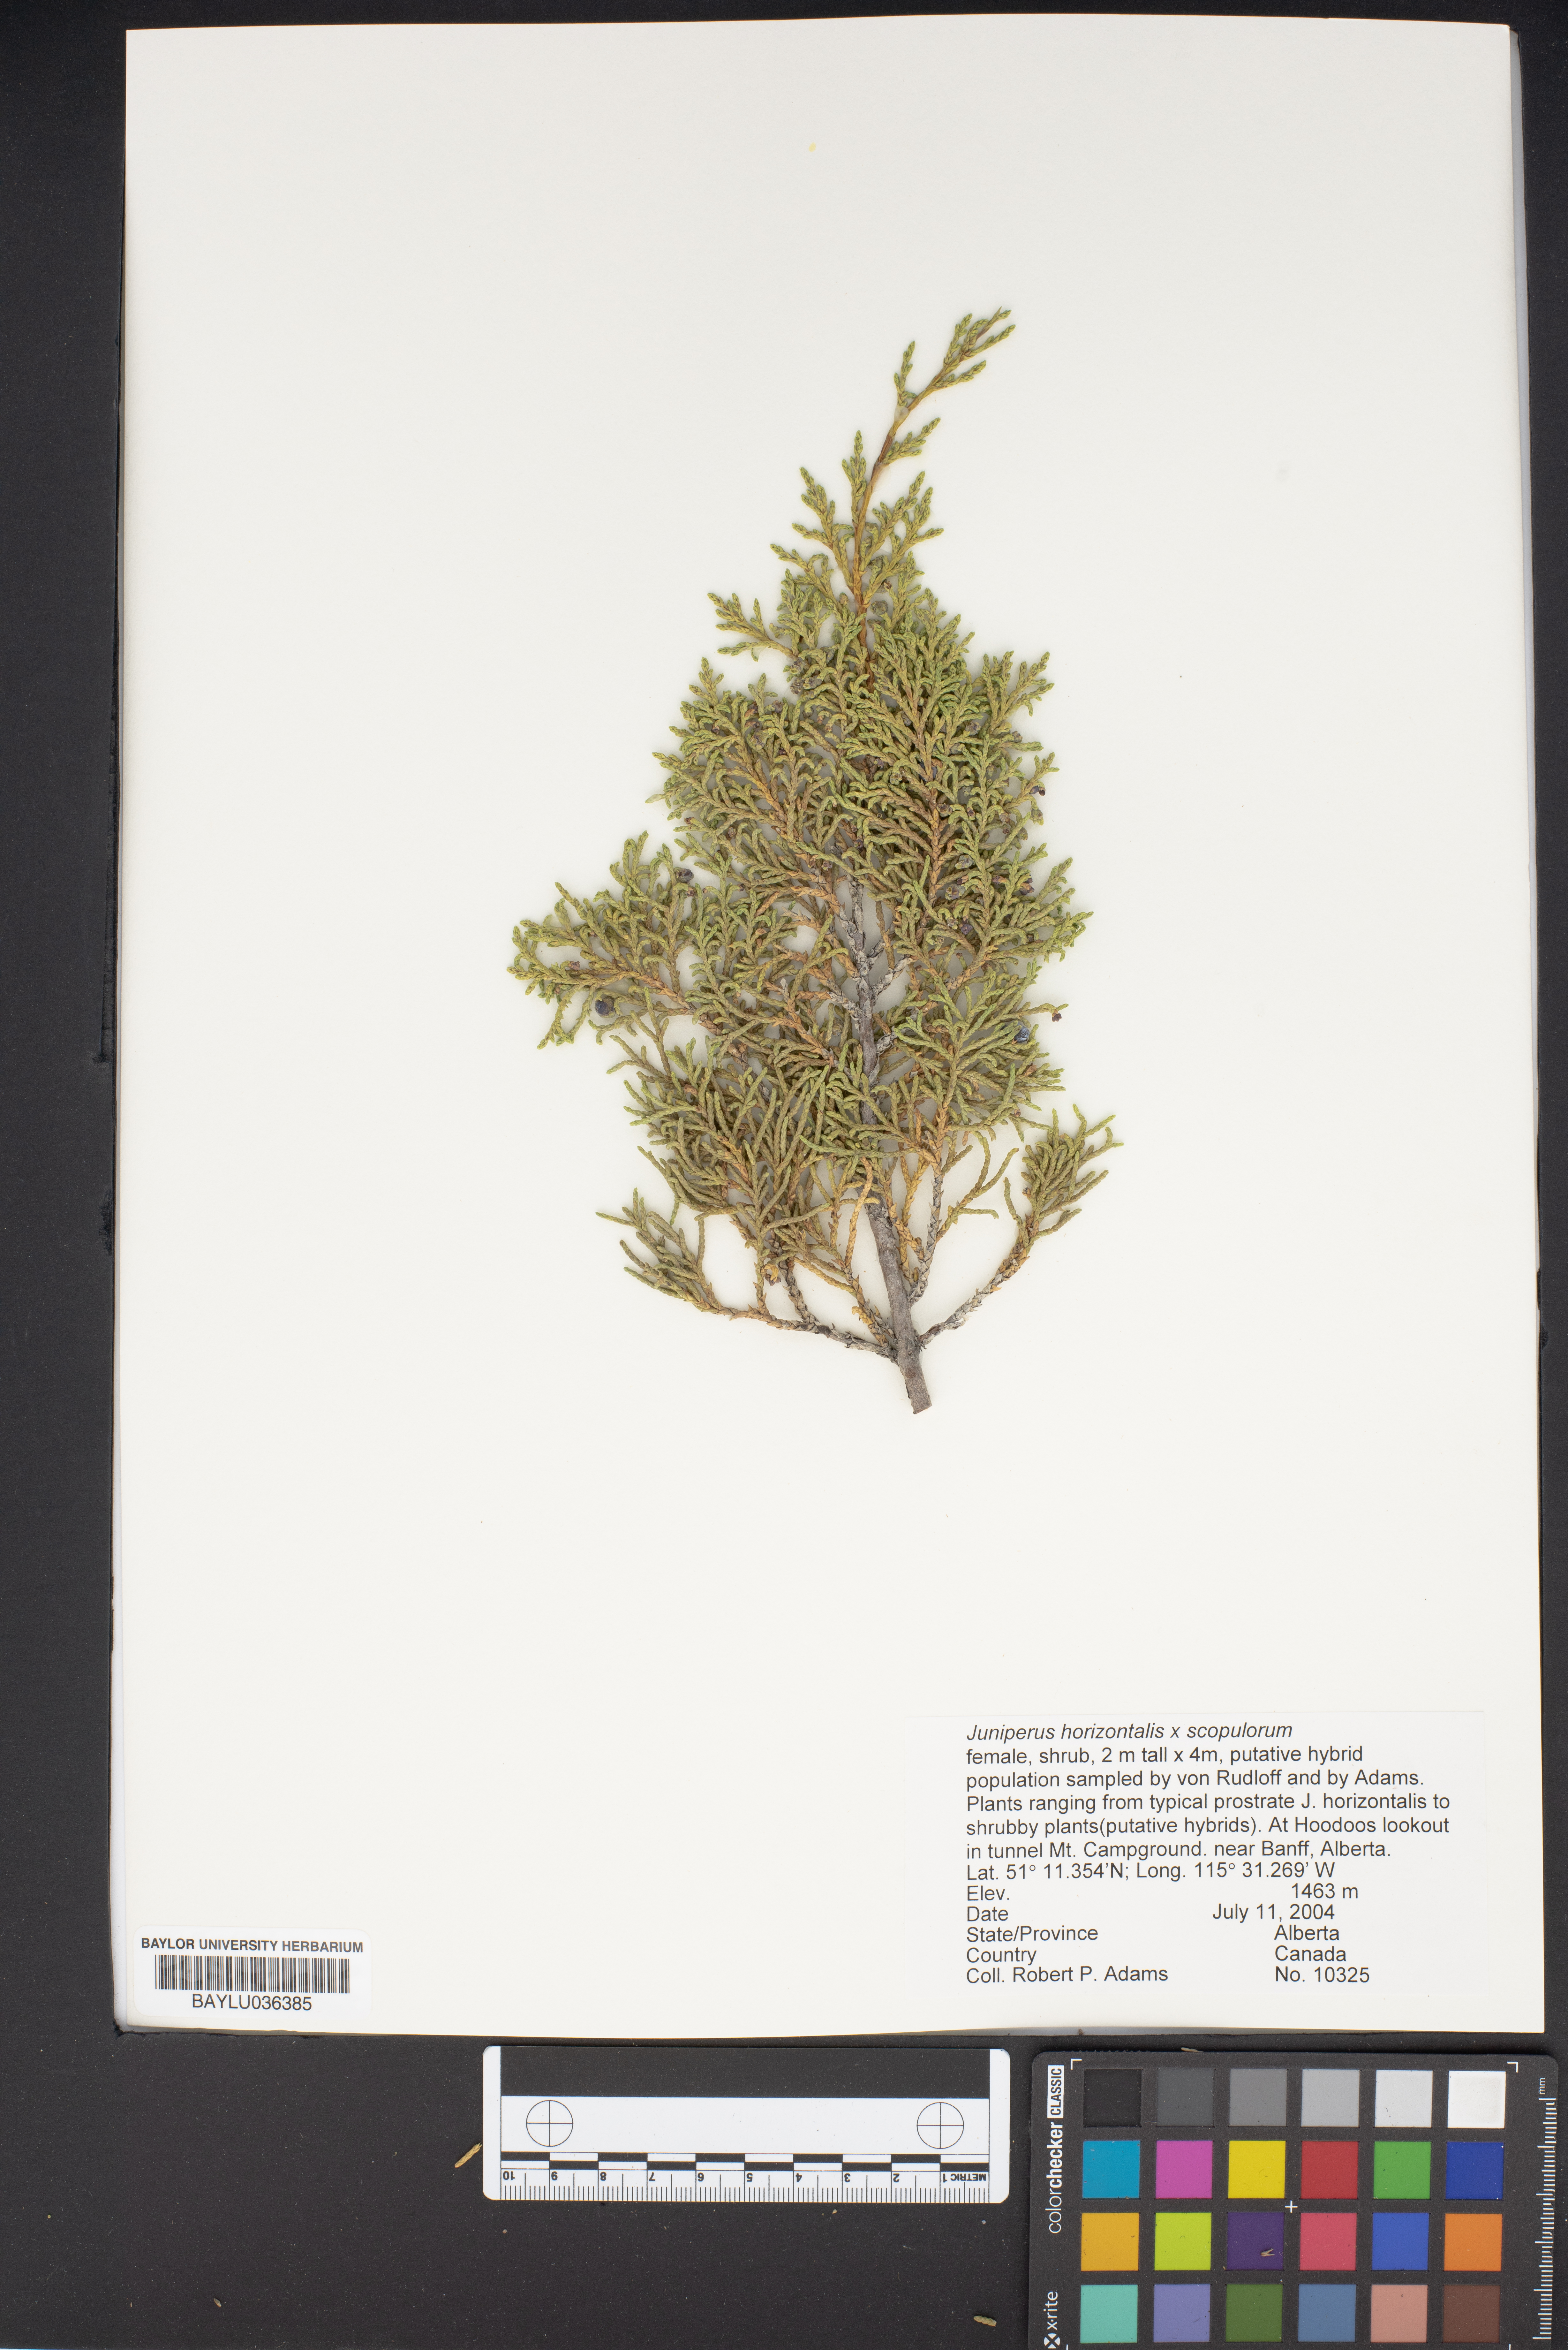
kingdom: Plantae
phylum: Tracheophyta
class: Pinopsida
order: Pinales
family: Cupressaceae
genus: Juniperus
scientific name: Juniperus horizontalis
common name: Creeping juniper
